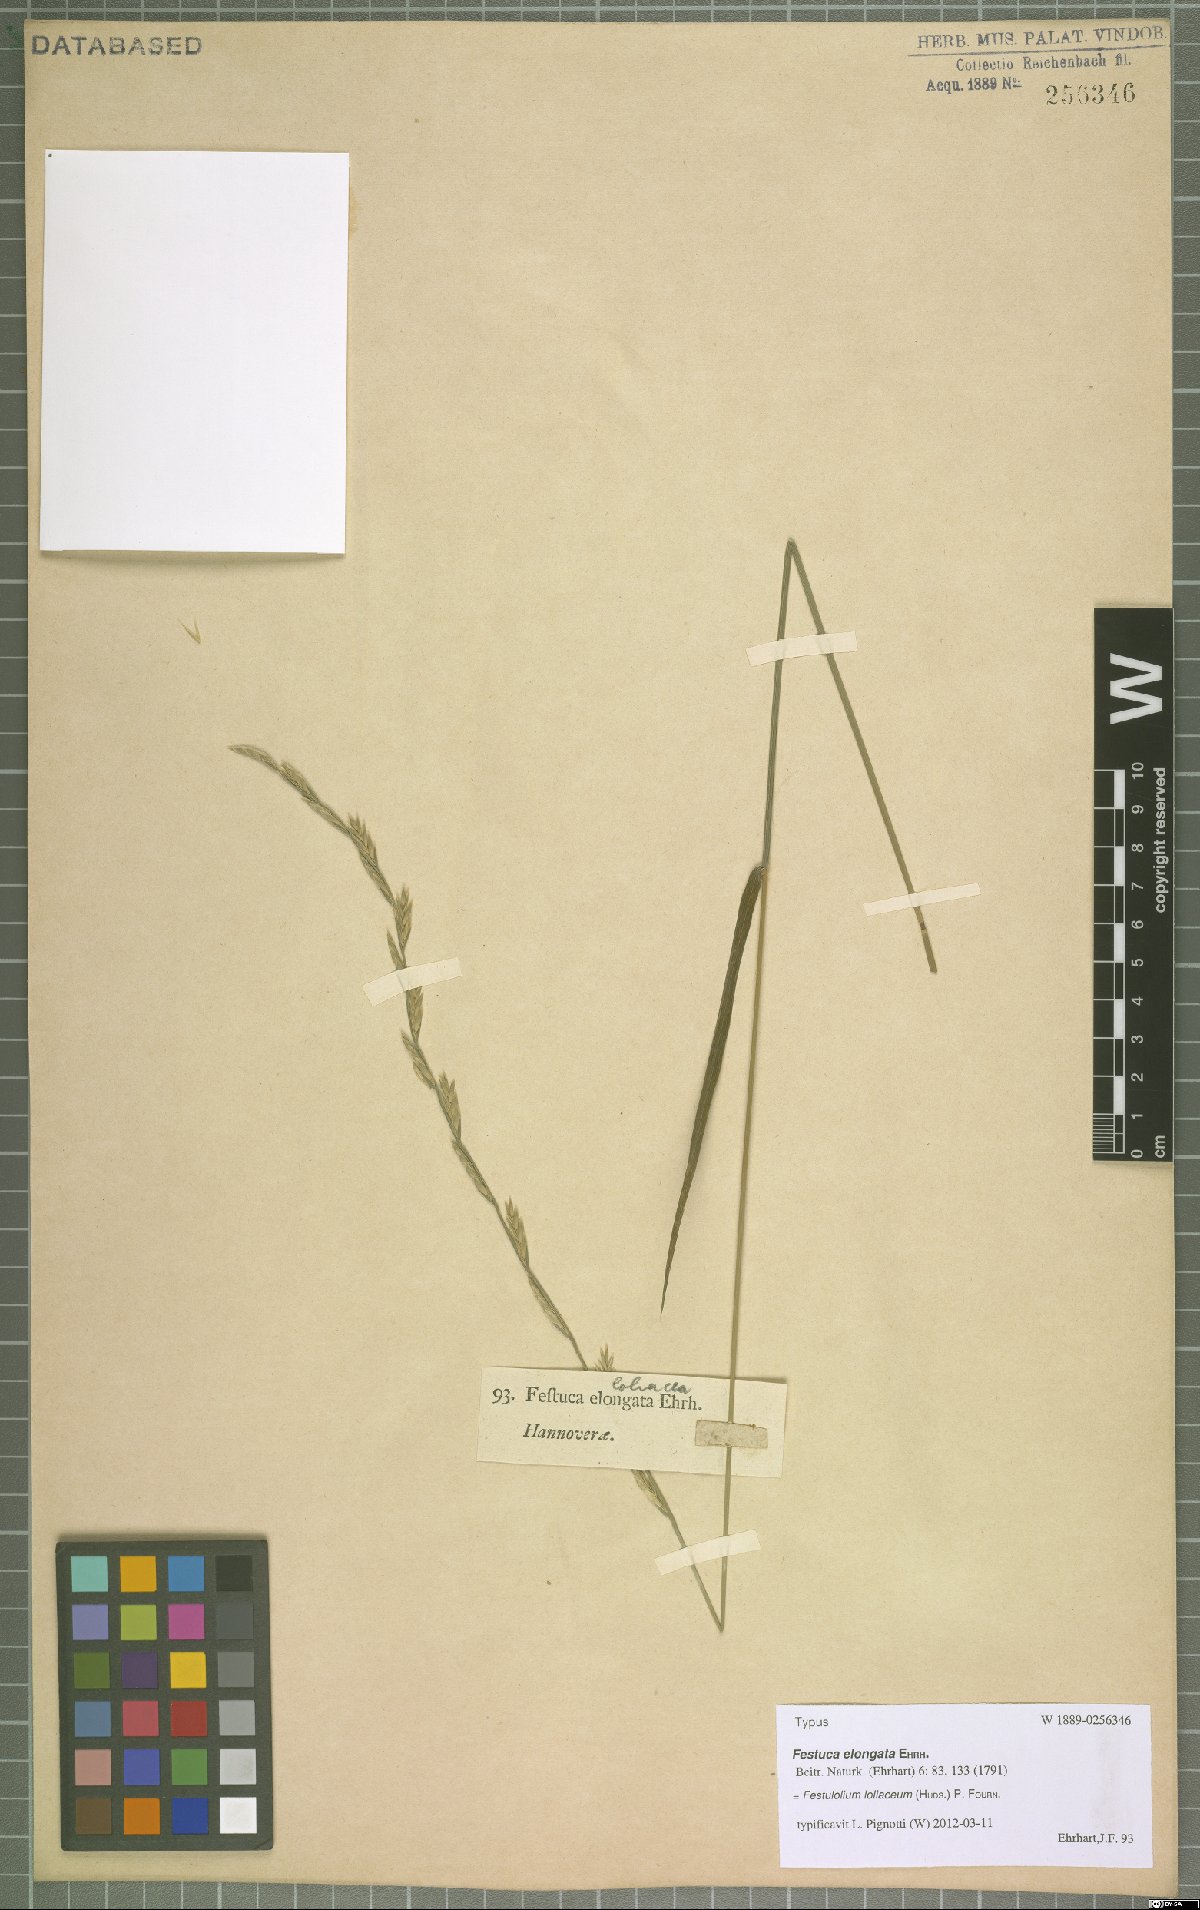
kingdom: Plantae
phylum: Tracheophyta
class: Liliopsida
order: Poales
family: Poaceae
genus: Lolium
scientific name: Lolium elongatum
